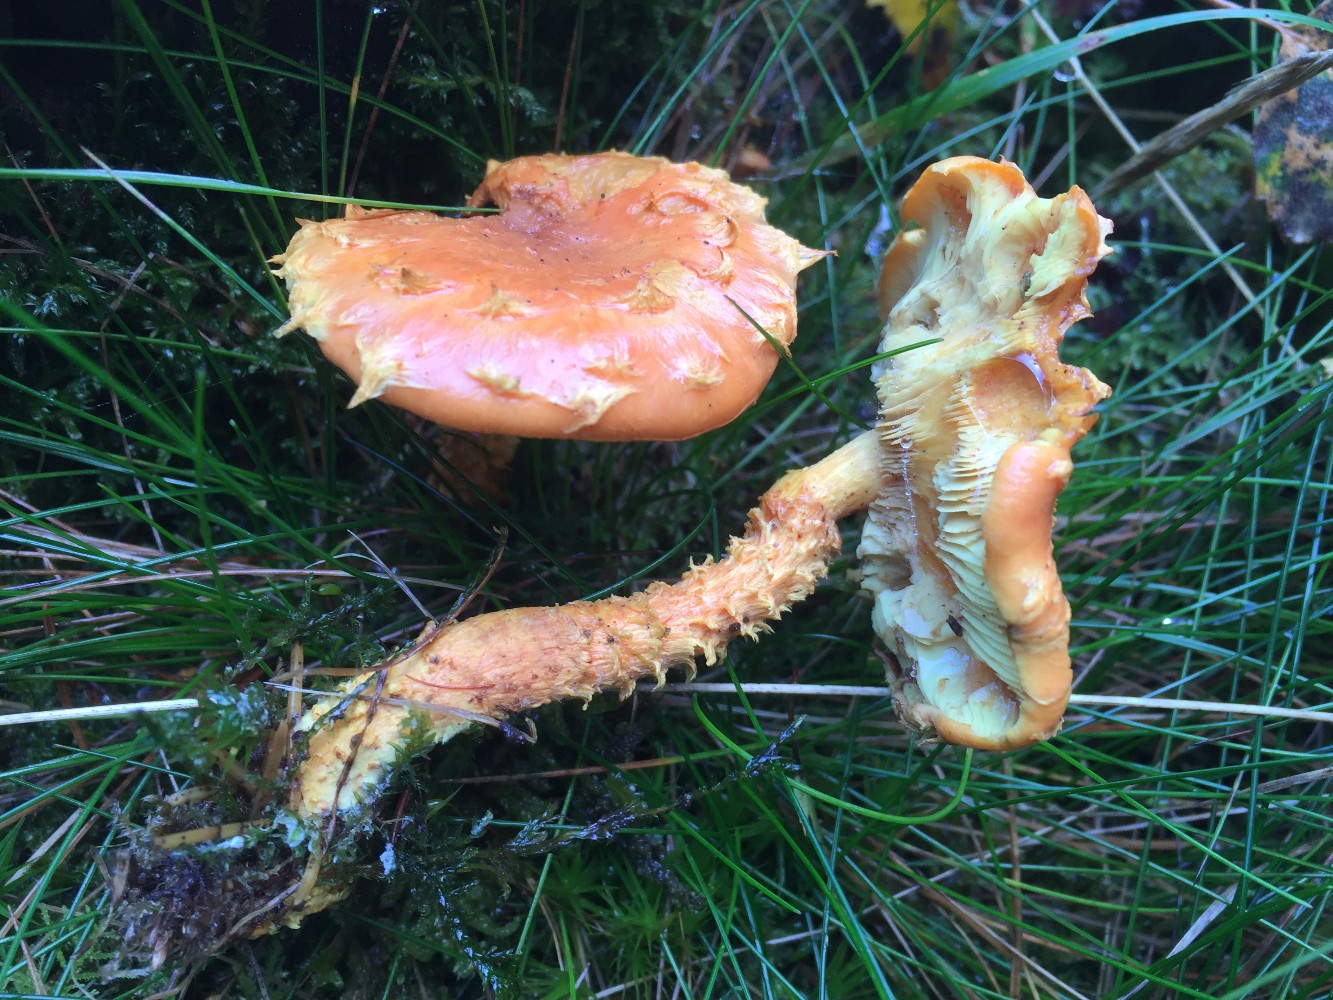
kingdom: Fungi
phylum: Basidiomycota
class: Agaricomycetes
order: Agaricales
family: Strophariaceae
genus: Pholiota
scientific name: Pholiota flammans
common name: flamme-skælhat
